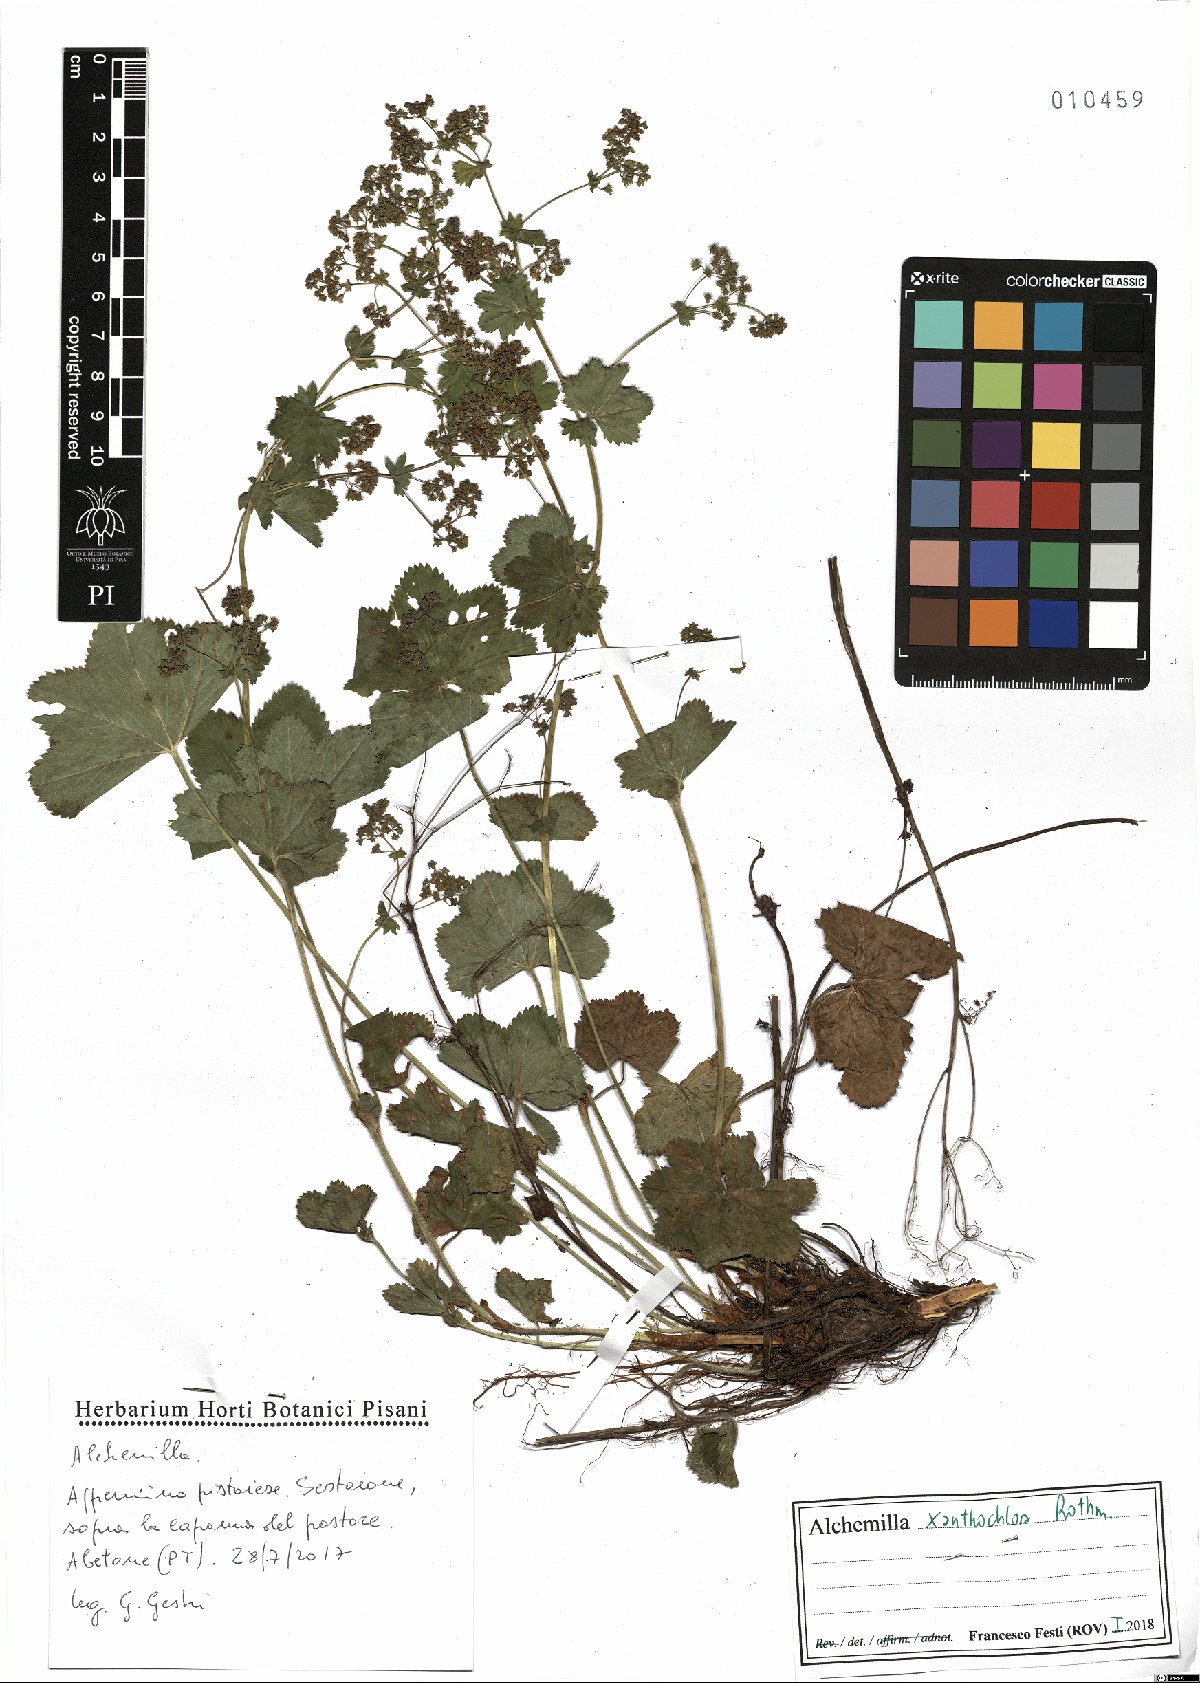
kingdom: Plantae
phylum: Tracheophyta
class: Magnoliopsida
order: Rosales
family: Rosaceae
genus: Alchemilla
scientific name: Alchemilla xanthochlora
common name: Intermediate lady's-mantle
